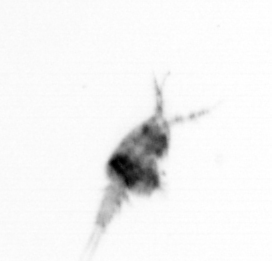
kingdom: Animalia
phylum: Arthropoda
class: Copepoda
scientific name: Copepoda
